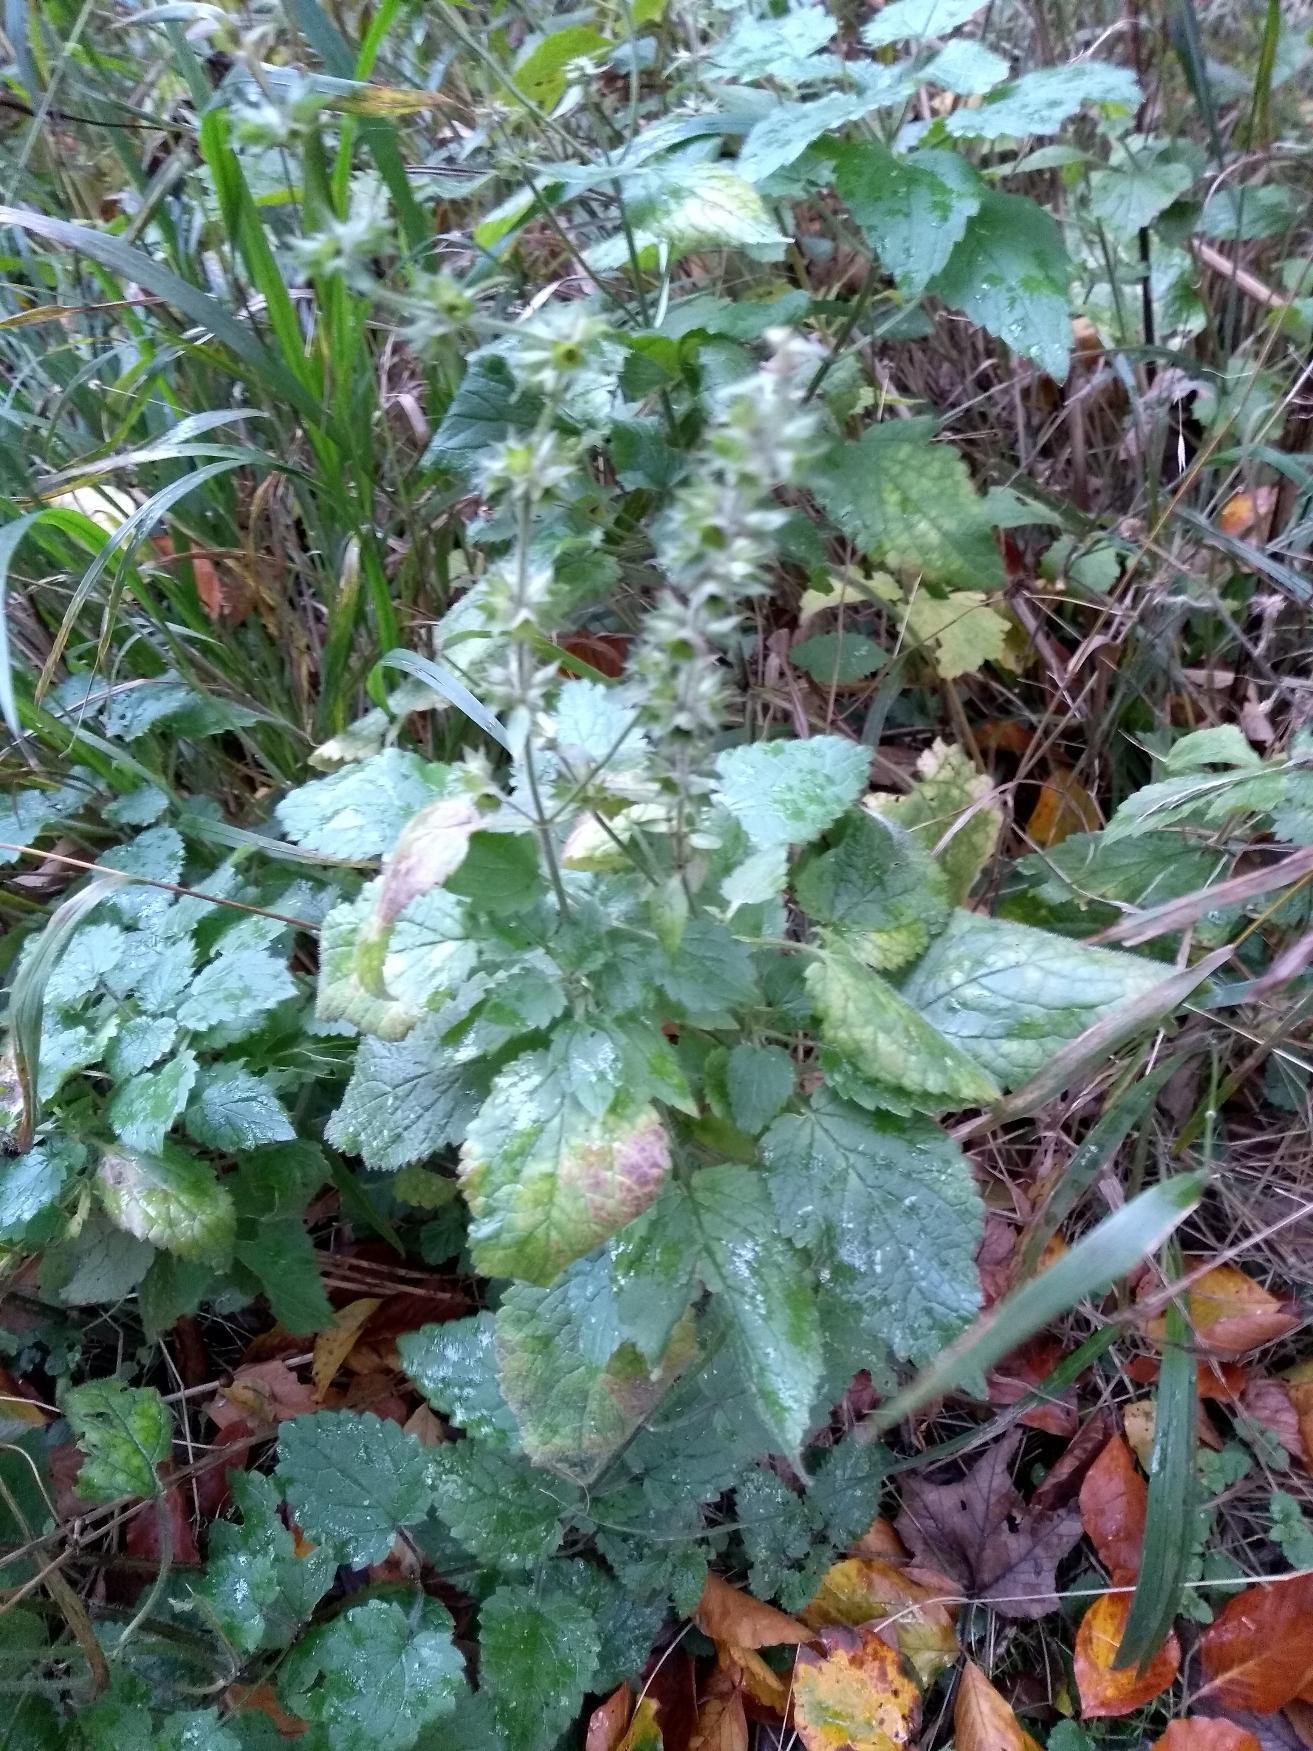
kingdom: Plantae
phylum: Tracheophyta
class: Magnoliopsida
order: Lamiales
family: Lamiaceae
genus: Stachys
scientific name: Stachys sylvatica
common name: Skov-galtetand
